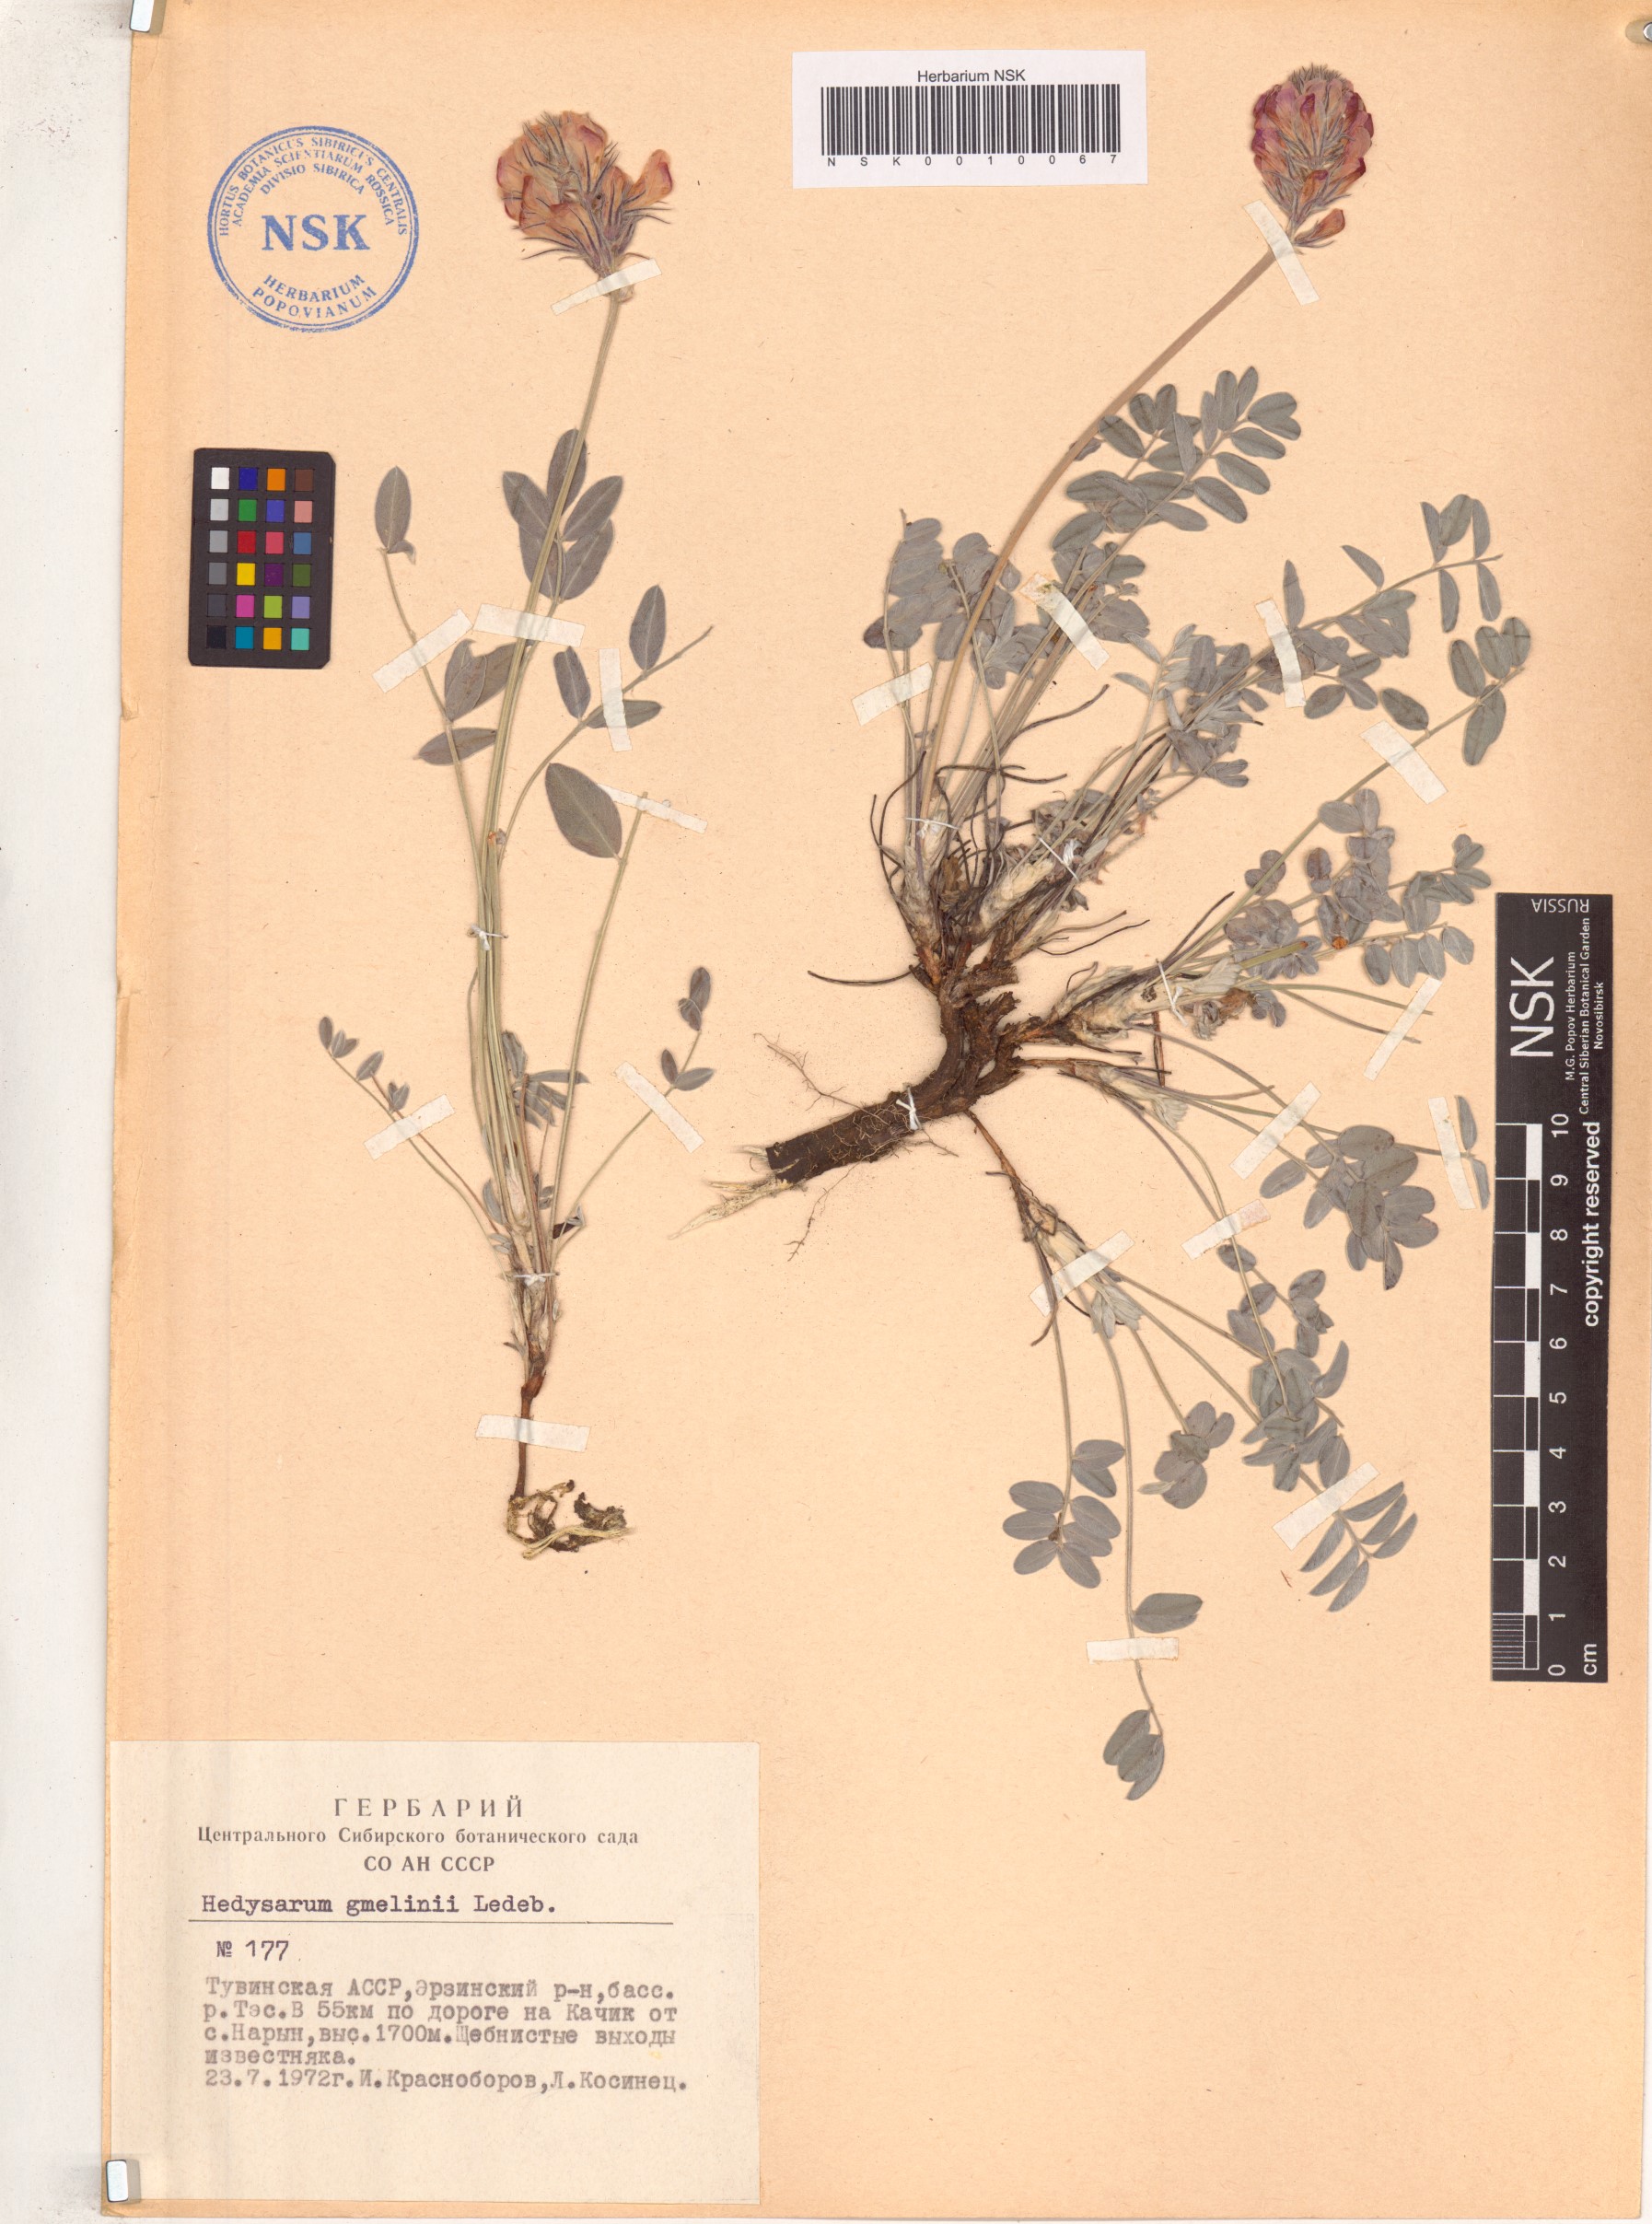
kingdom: Plantae
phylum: Tracheophyta
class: Magnoliopsida
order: Fabales
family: Fabaceae
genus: Hedysarum
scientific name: Hedysarum gmelinii
